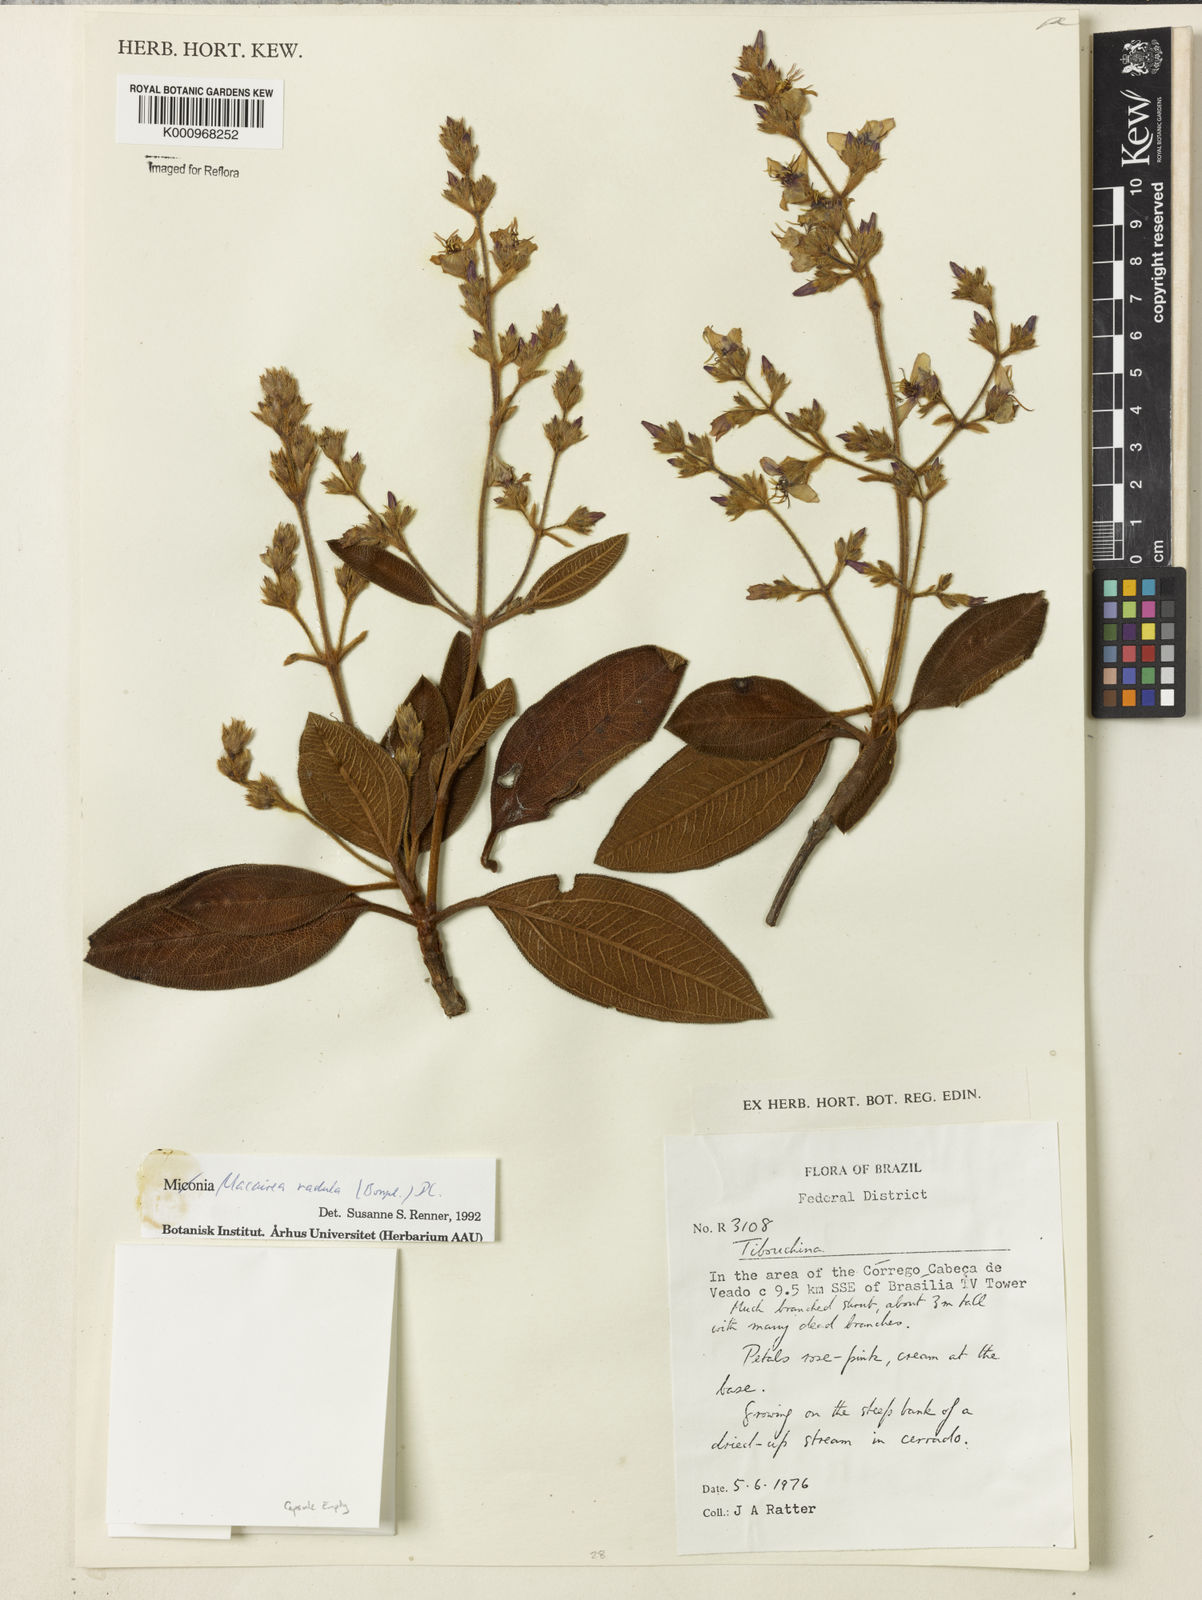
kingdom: Plantae
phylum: Tracheophyta
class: Magnoliopsida
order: Myrtales
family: Melastomataceae
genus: Macairea
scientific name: Macairea radula
